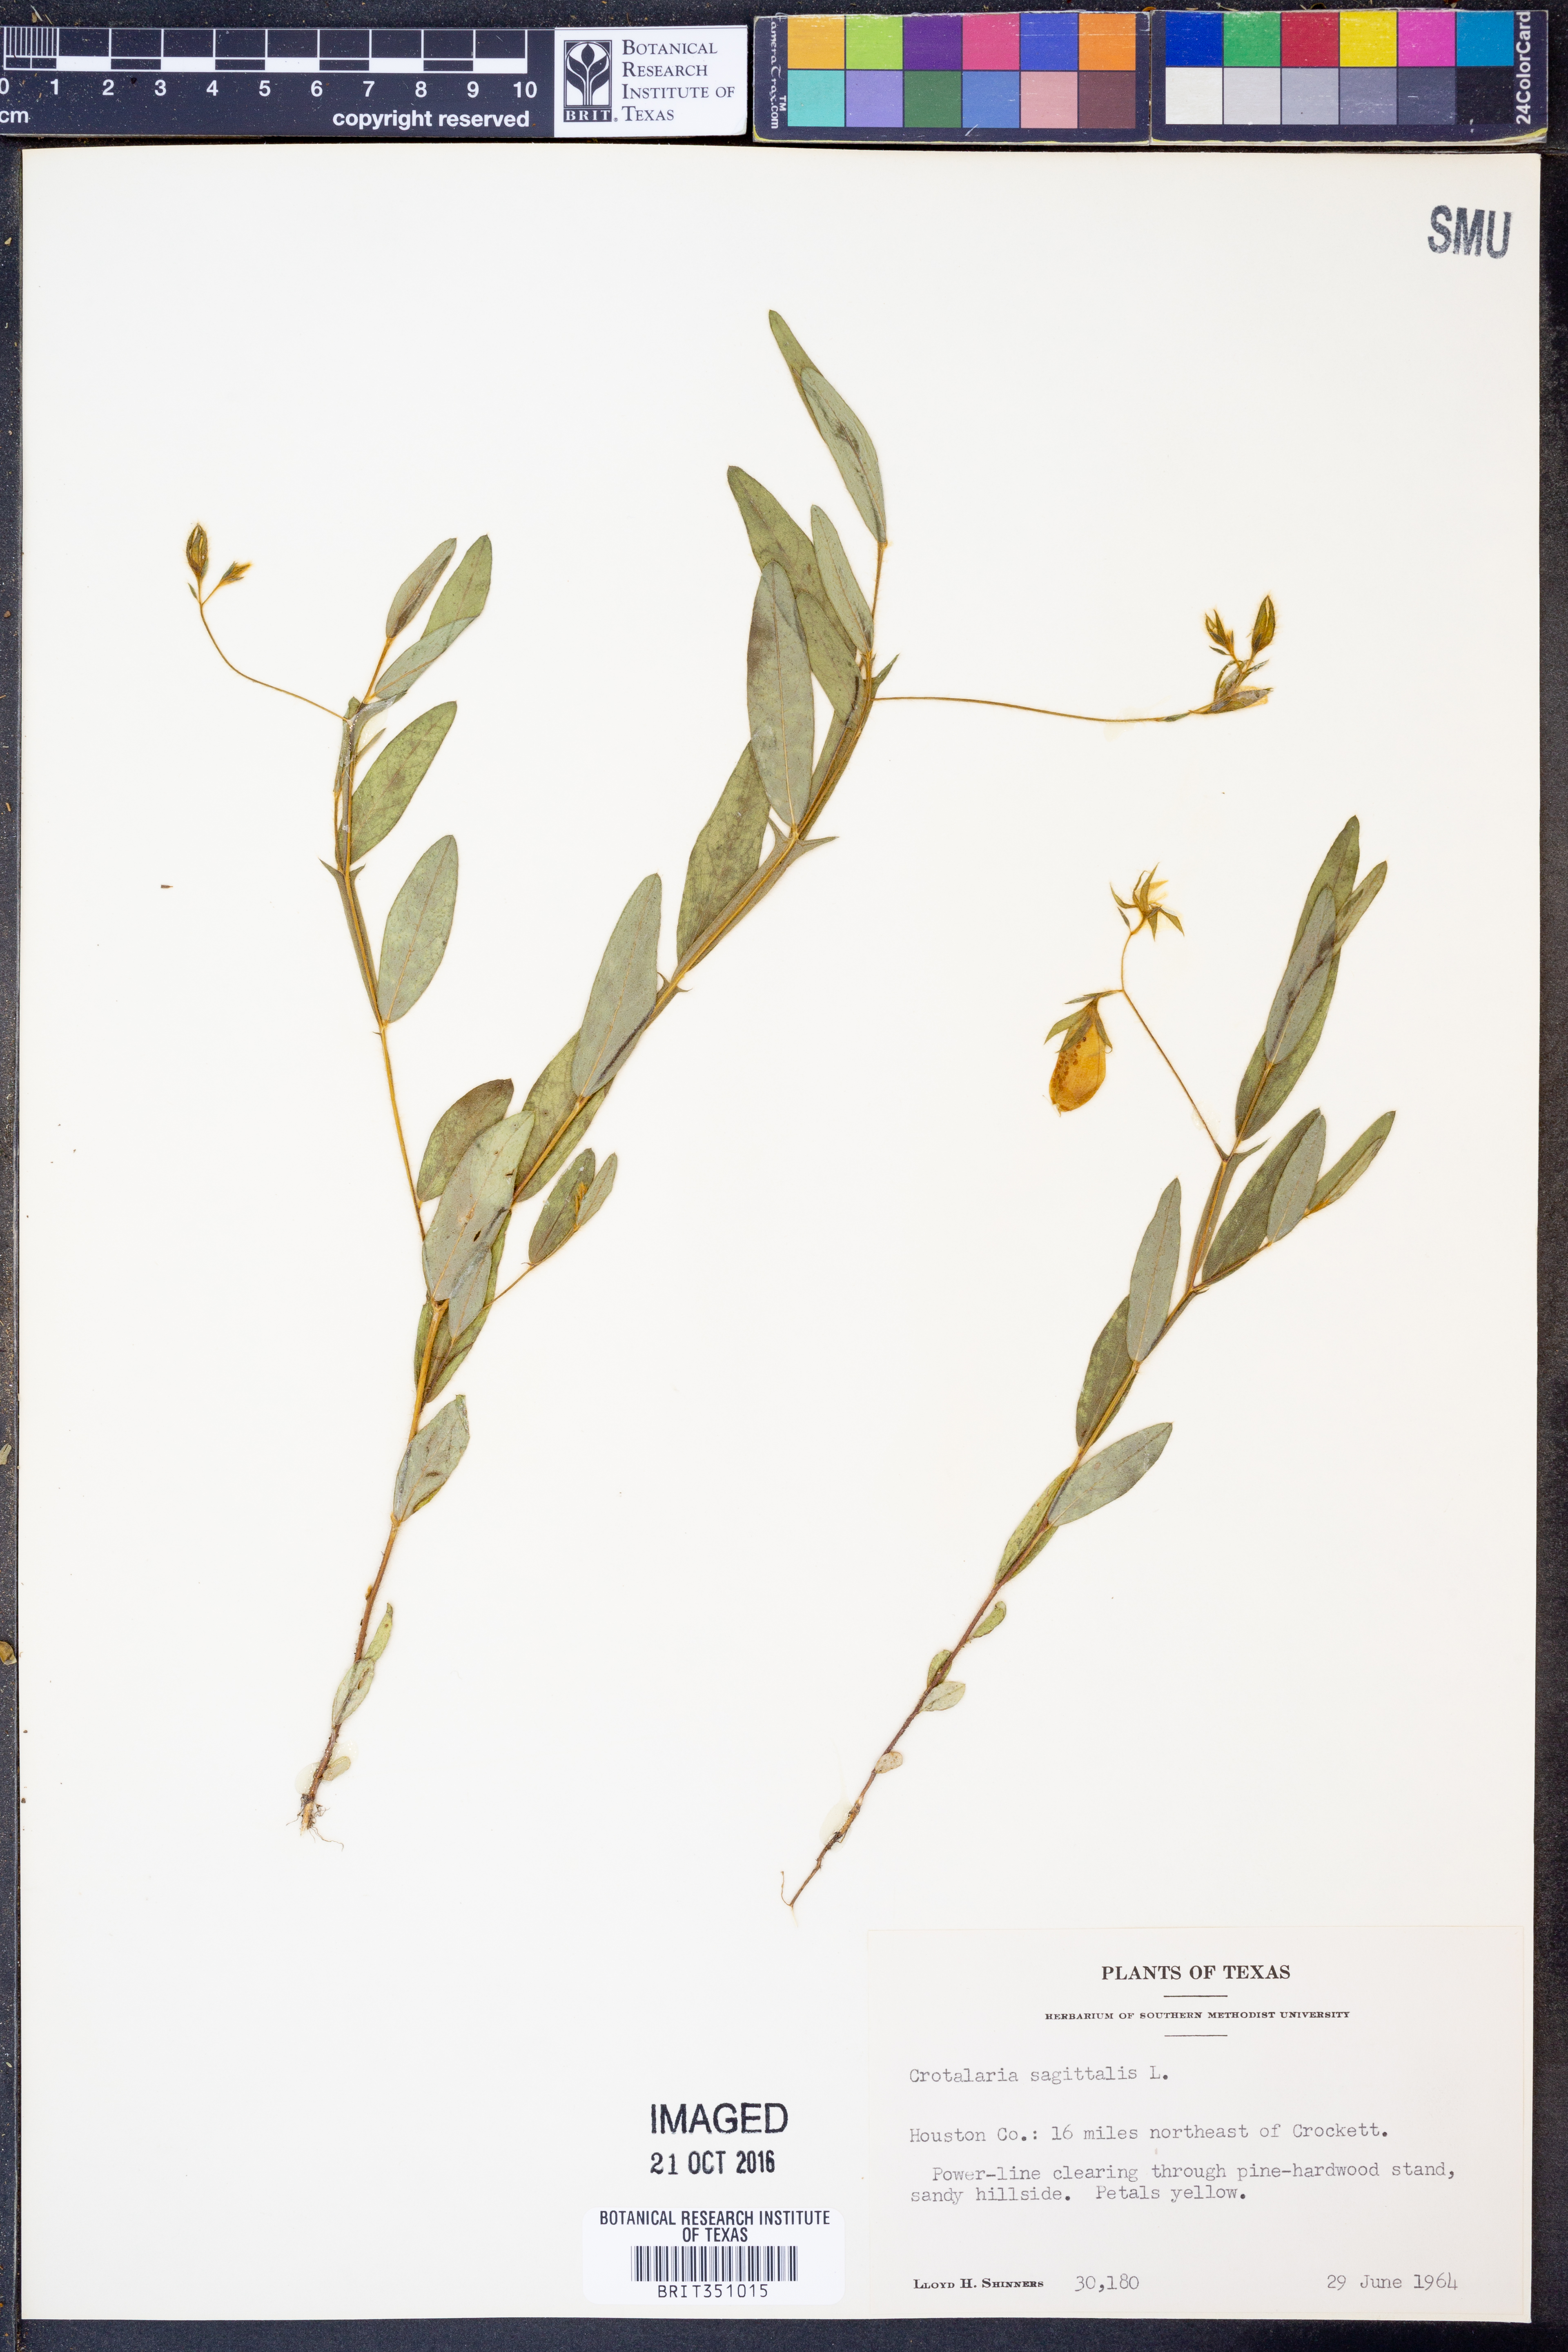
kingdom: Plantae
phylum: Tracheophyta
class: Magnoliopsida
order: Fabales
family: Fabaceae
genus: Crotalaria
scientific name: Crotalaria sagittalis
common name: Arrowhead rattlebox
